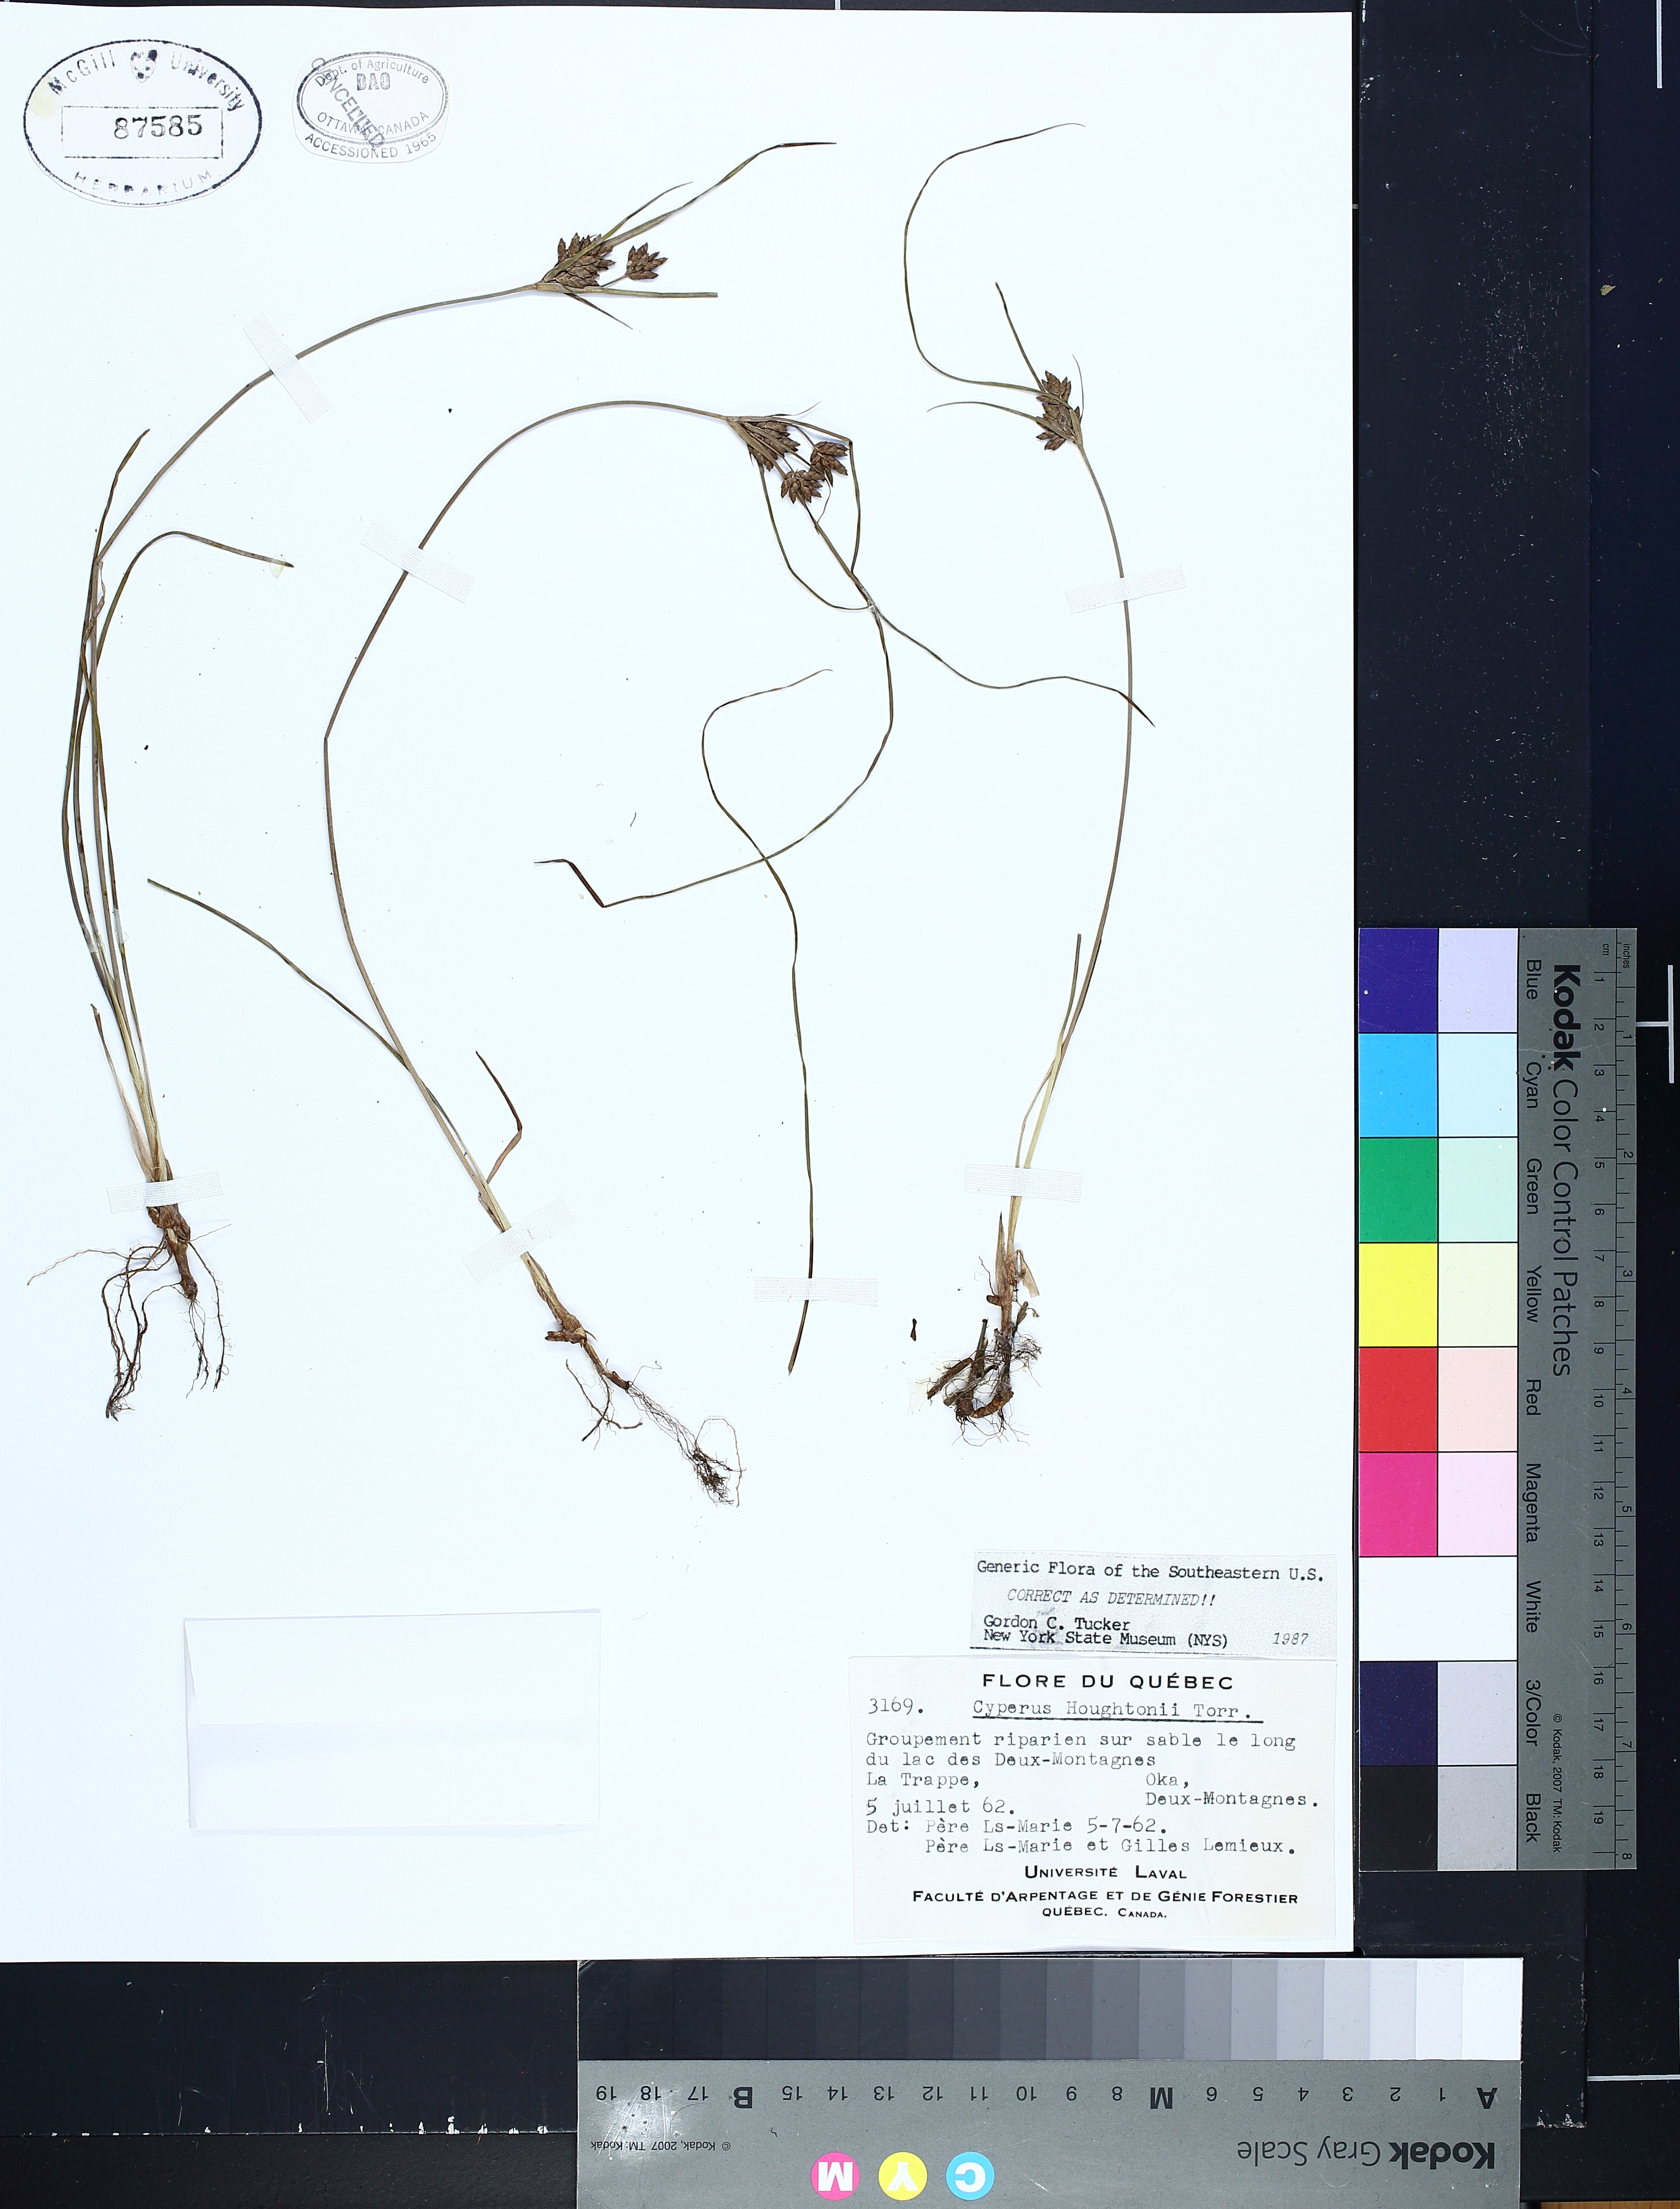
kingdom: Plantae
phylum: Tracheophyta
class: Liliopsida
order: Poales
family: Cyperaceae
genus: Cyperus
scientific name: Cyperus houghtonii
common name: Houghton's cyperus
